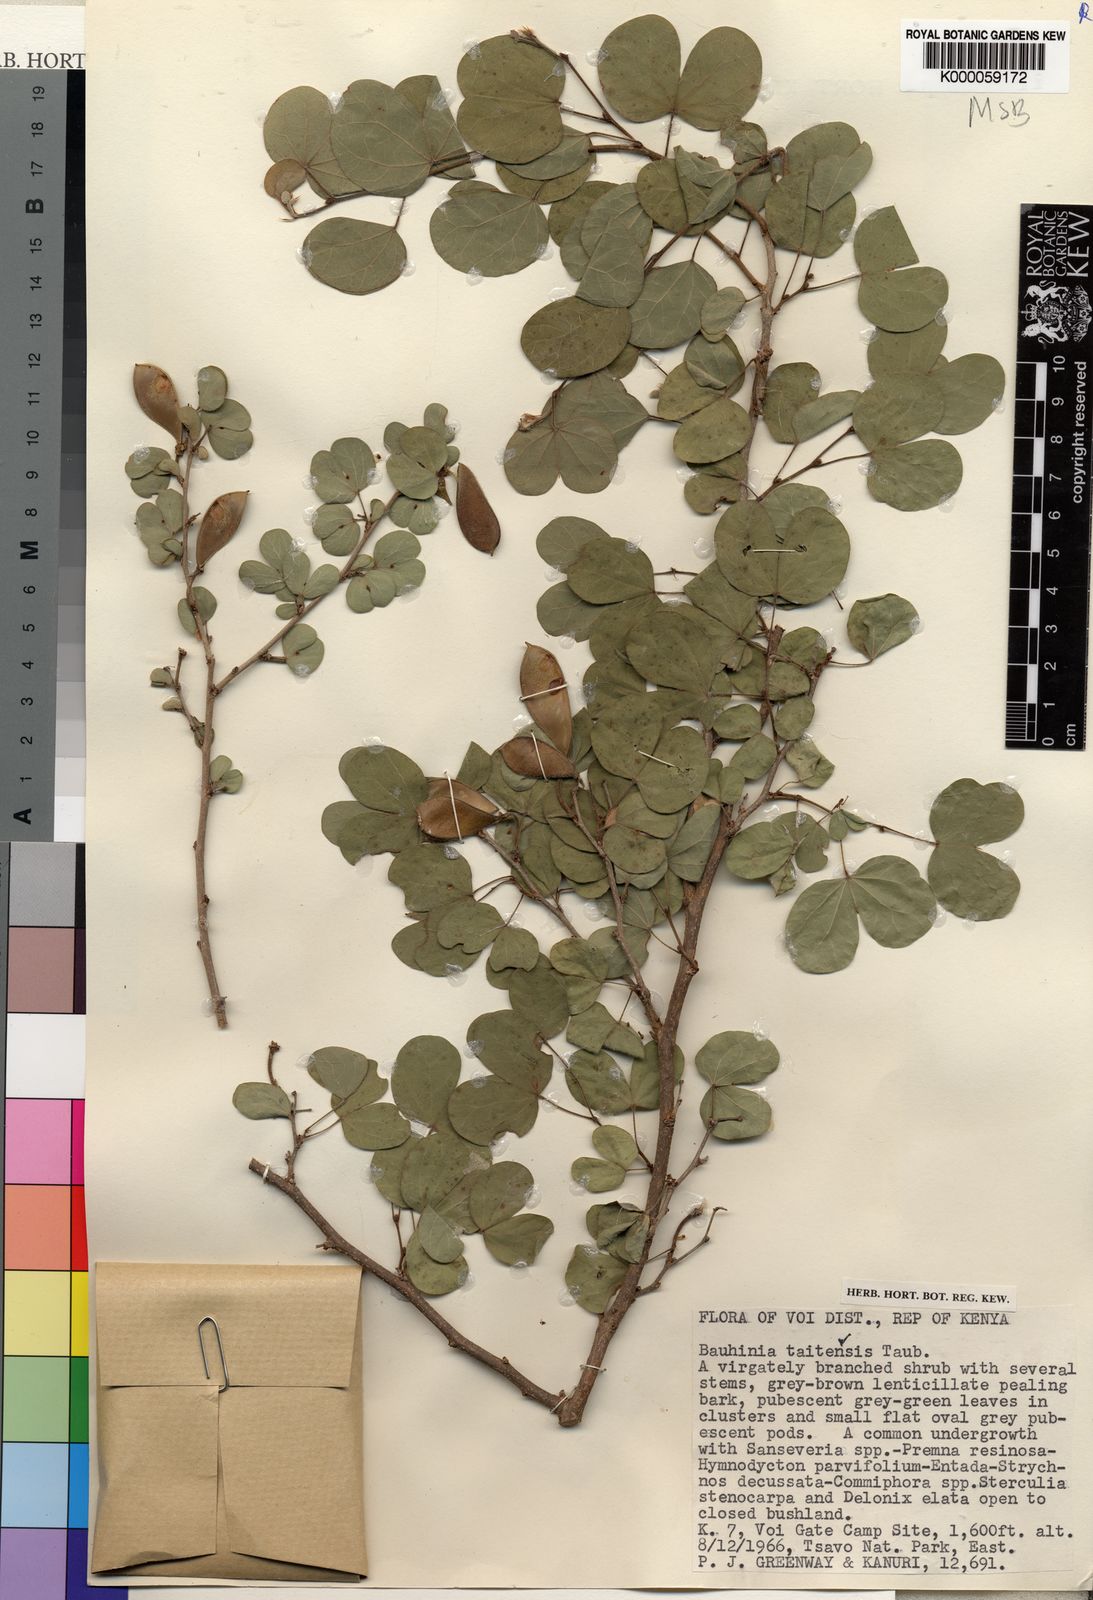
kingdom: Plantae
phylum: Tracheophyta
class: Magnoliopsida
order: Fabales
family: Fabaceae
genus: Bauhinia
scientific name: Bauhinia taitensis
